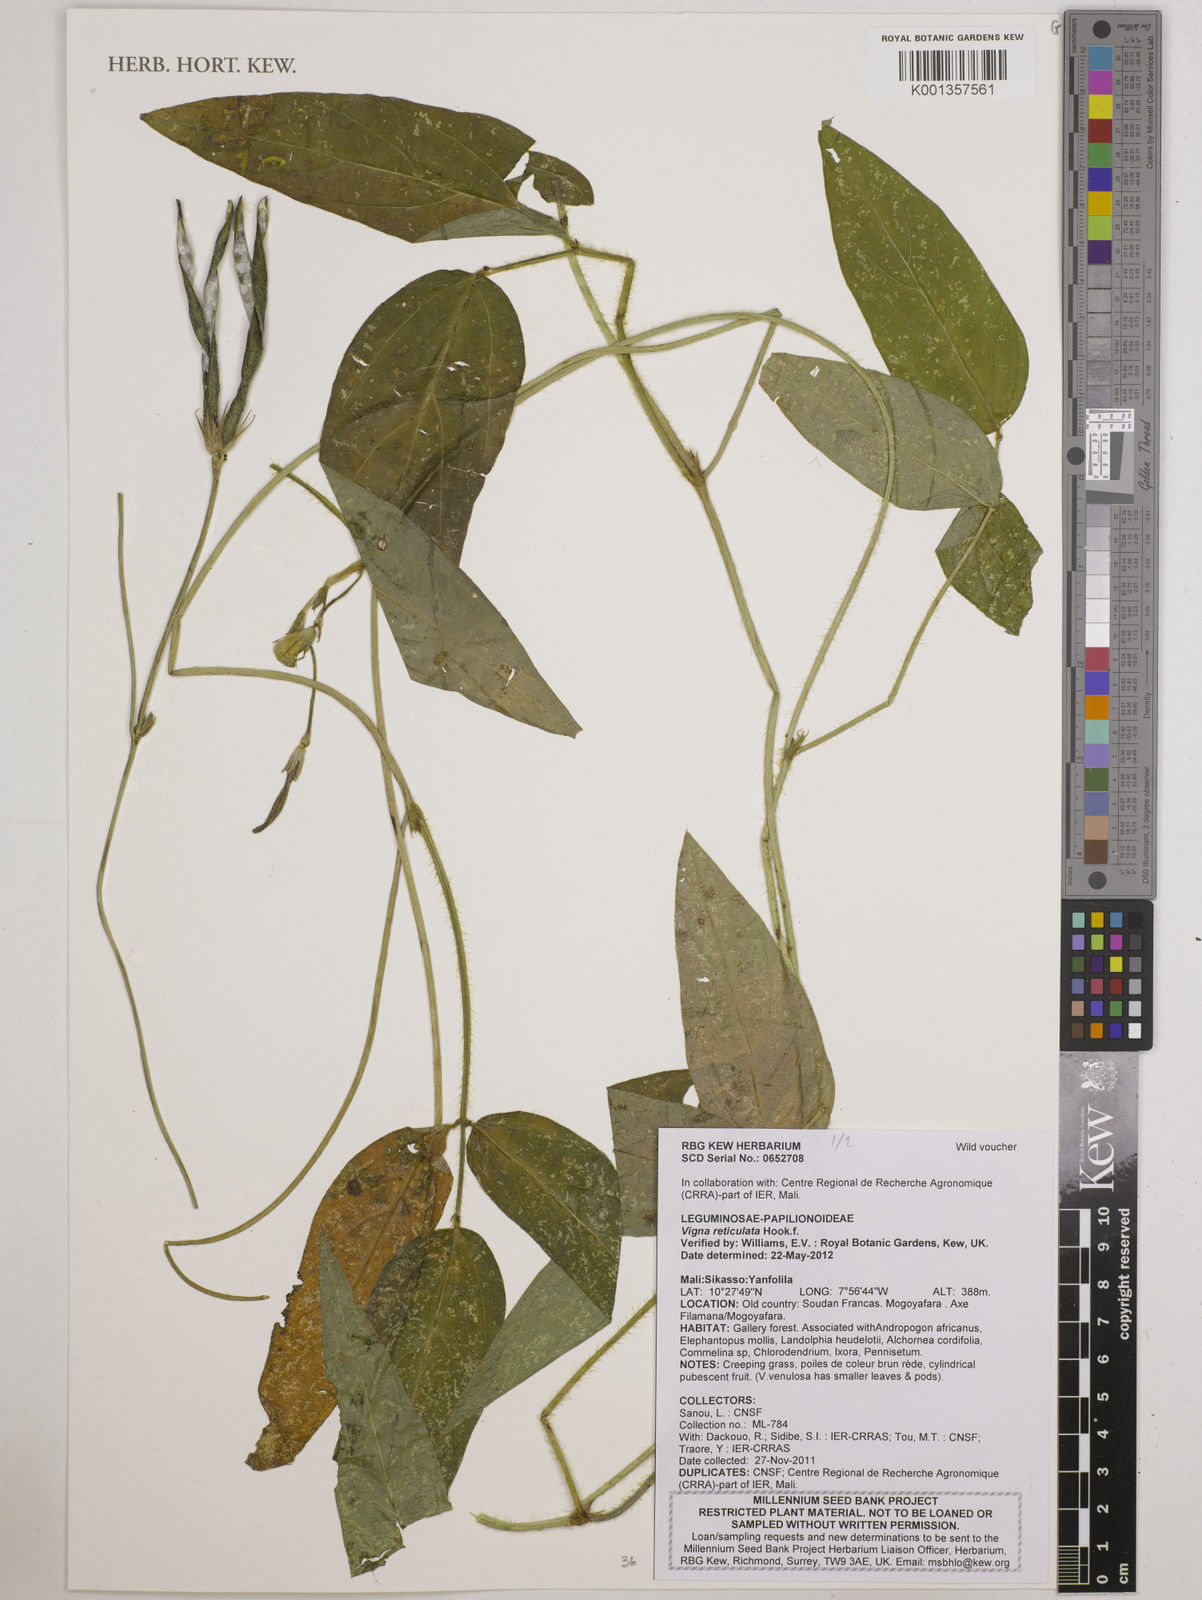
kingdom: Plantae
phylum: Tracheophyta
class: Magnoliopsida
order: Fabales
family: Fabaceae
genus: Vigna
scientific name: Vigna reticulata
